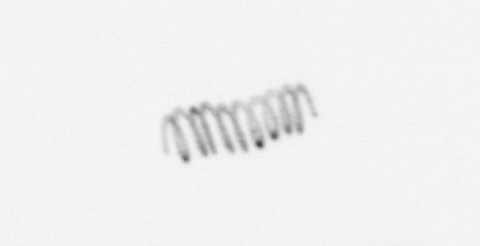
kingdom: Chromista
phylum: Ochrophyta
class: Bacillariophyceae
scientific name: Bacillariophyceae
